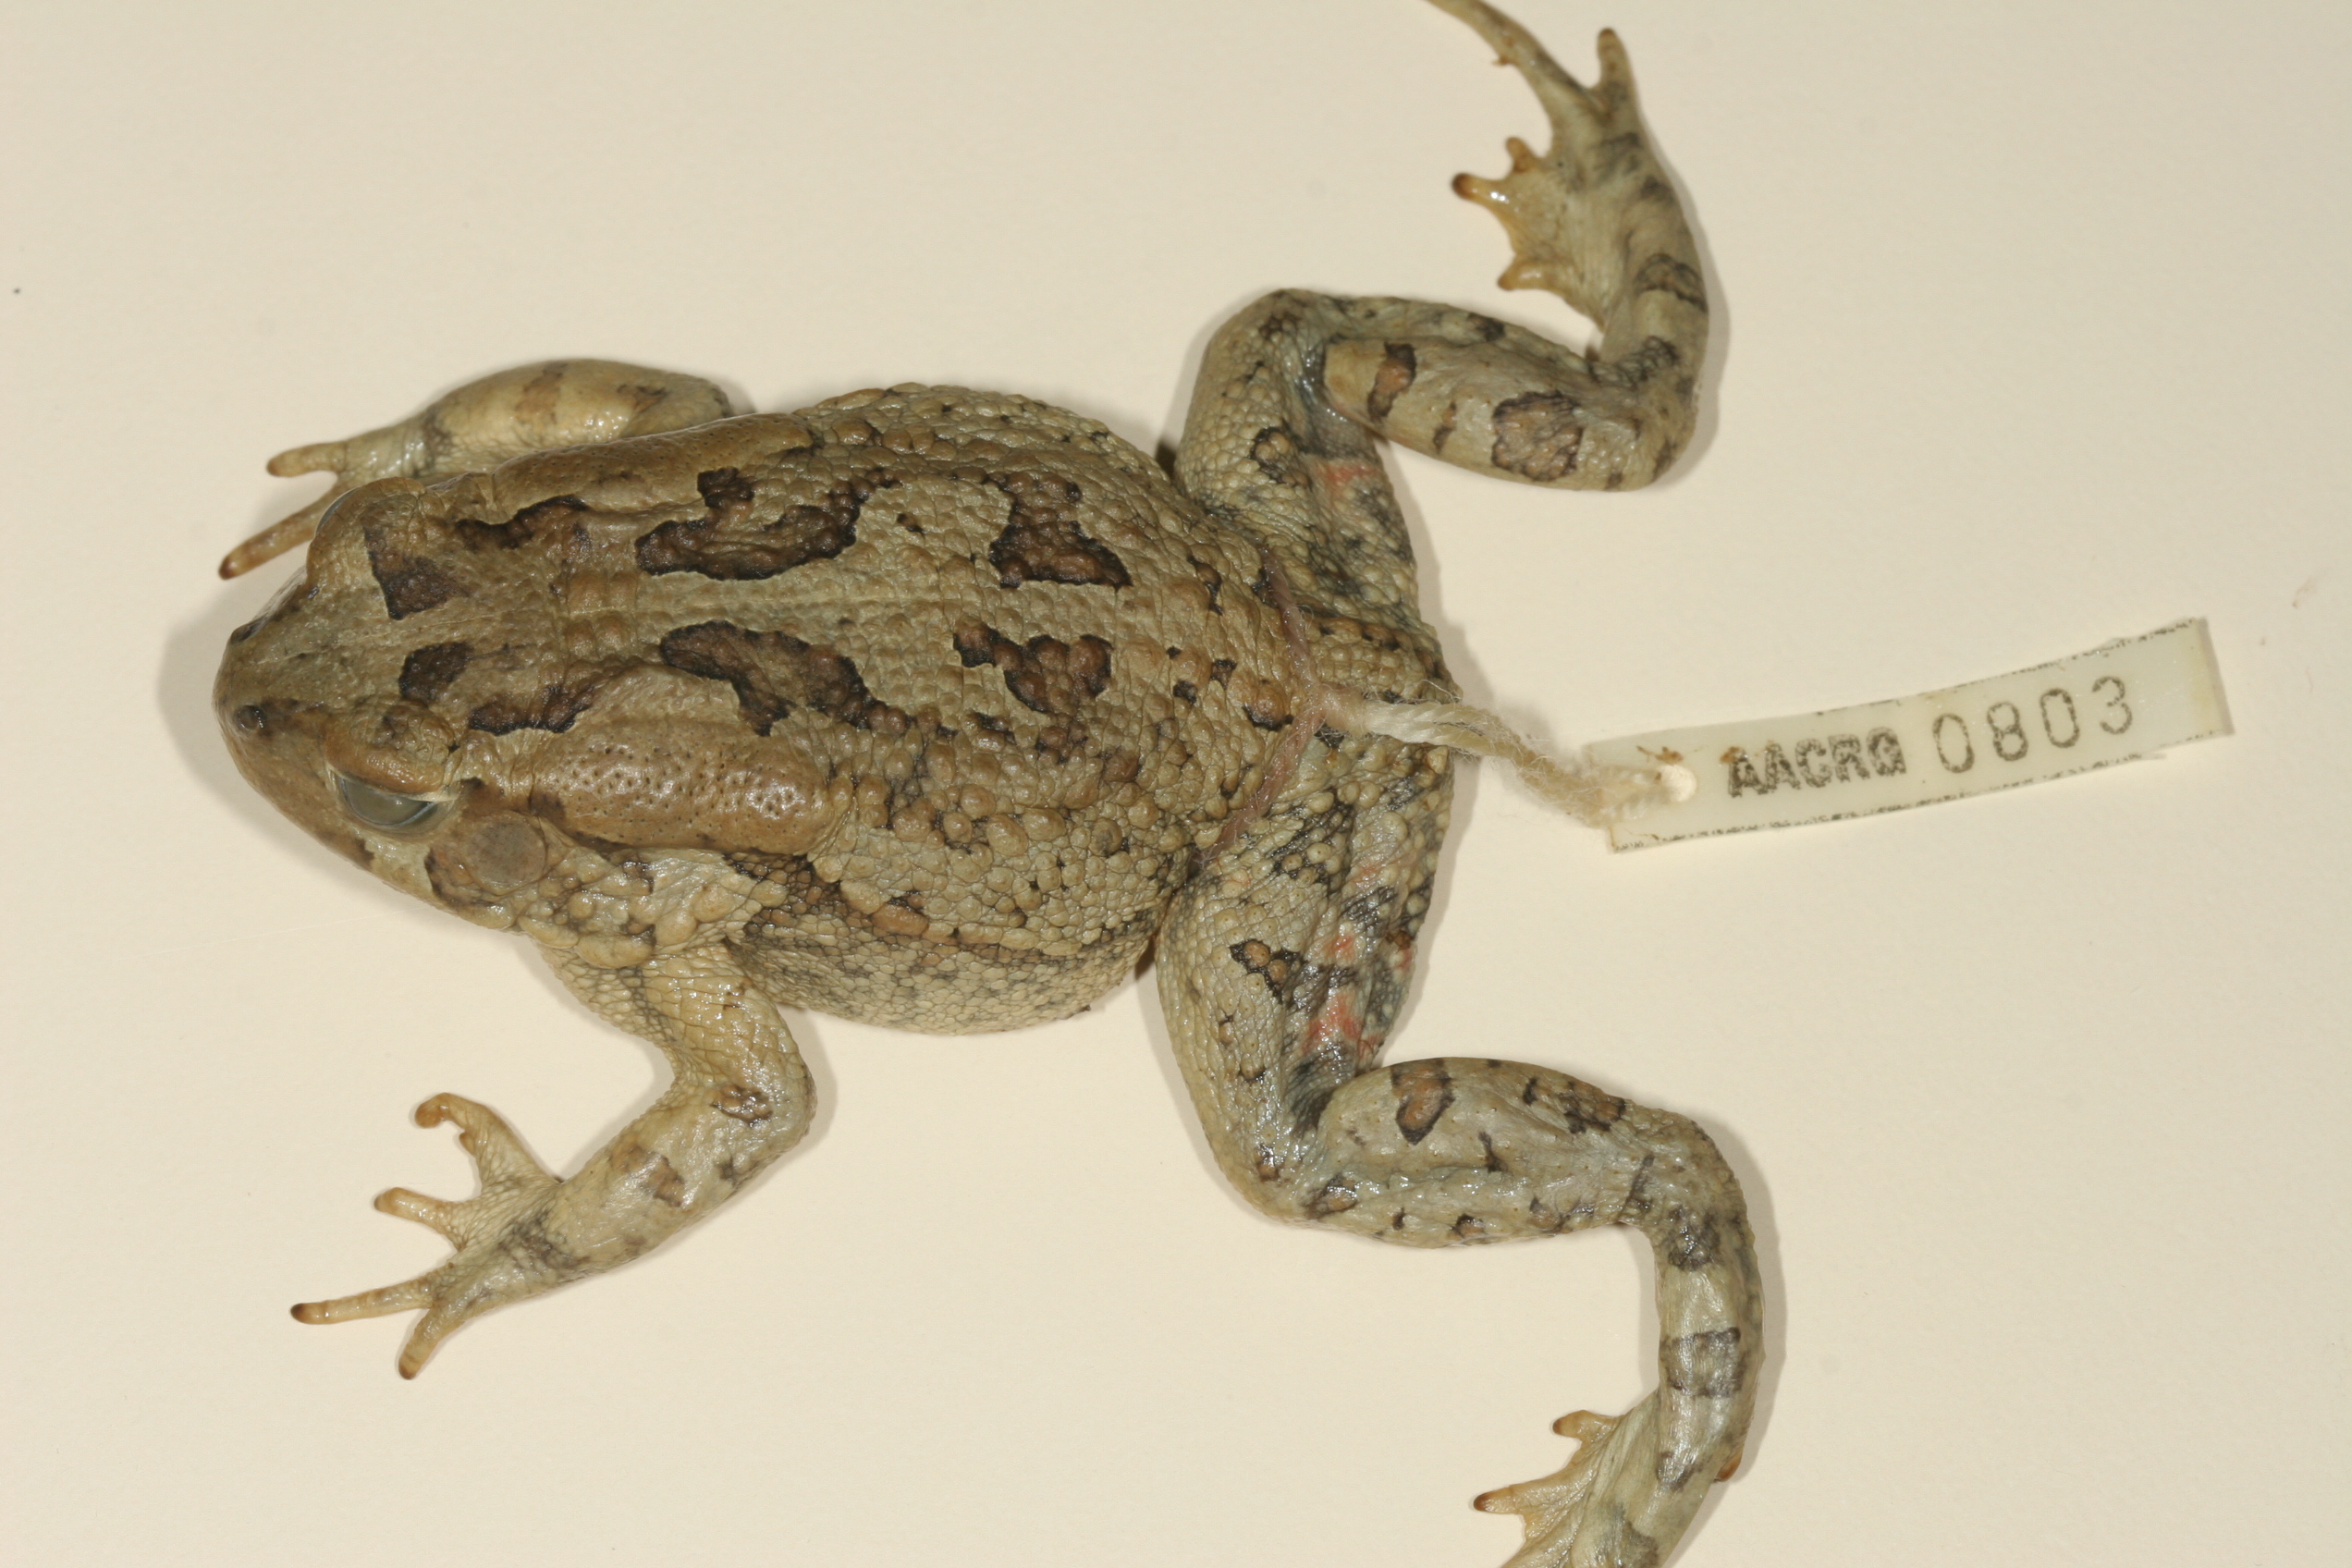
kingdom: Animalia
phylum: Chordata
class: Amphibia
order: Anura
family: Bufonidae
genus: Sclerophrys
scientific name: Sclerophrys poweri
